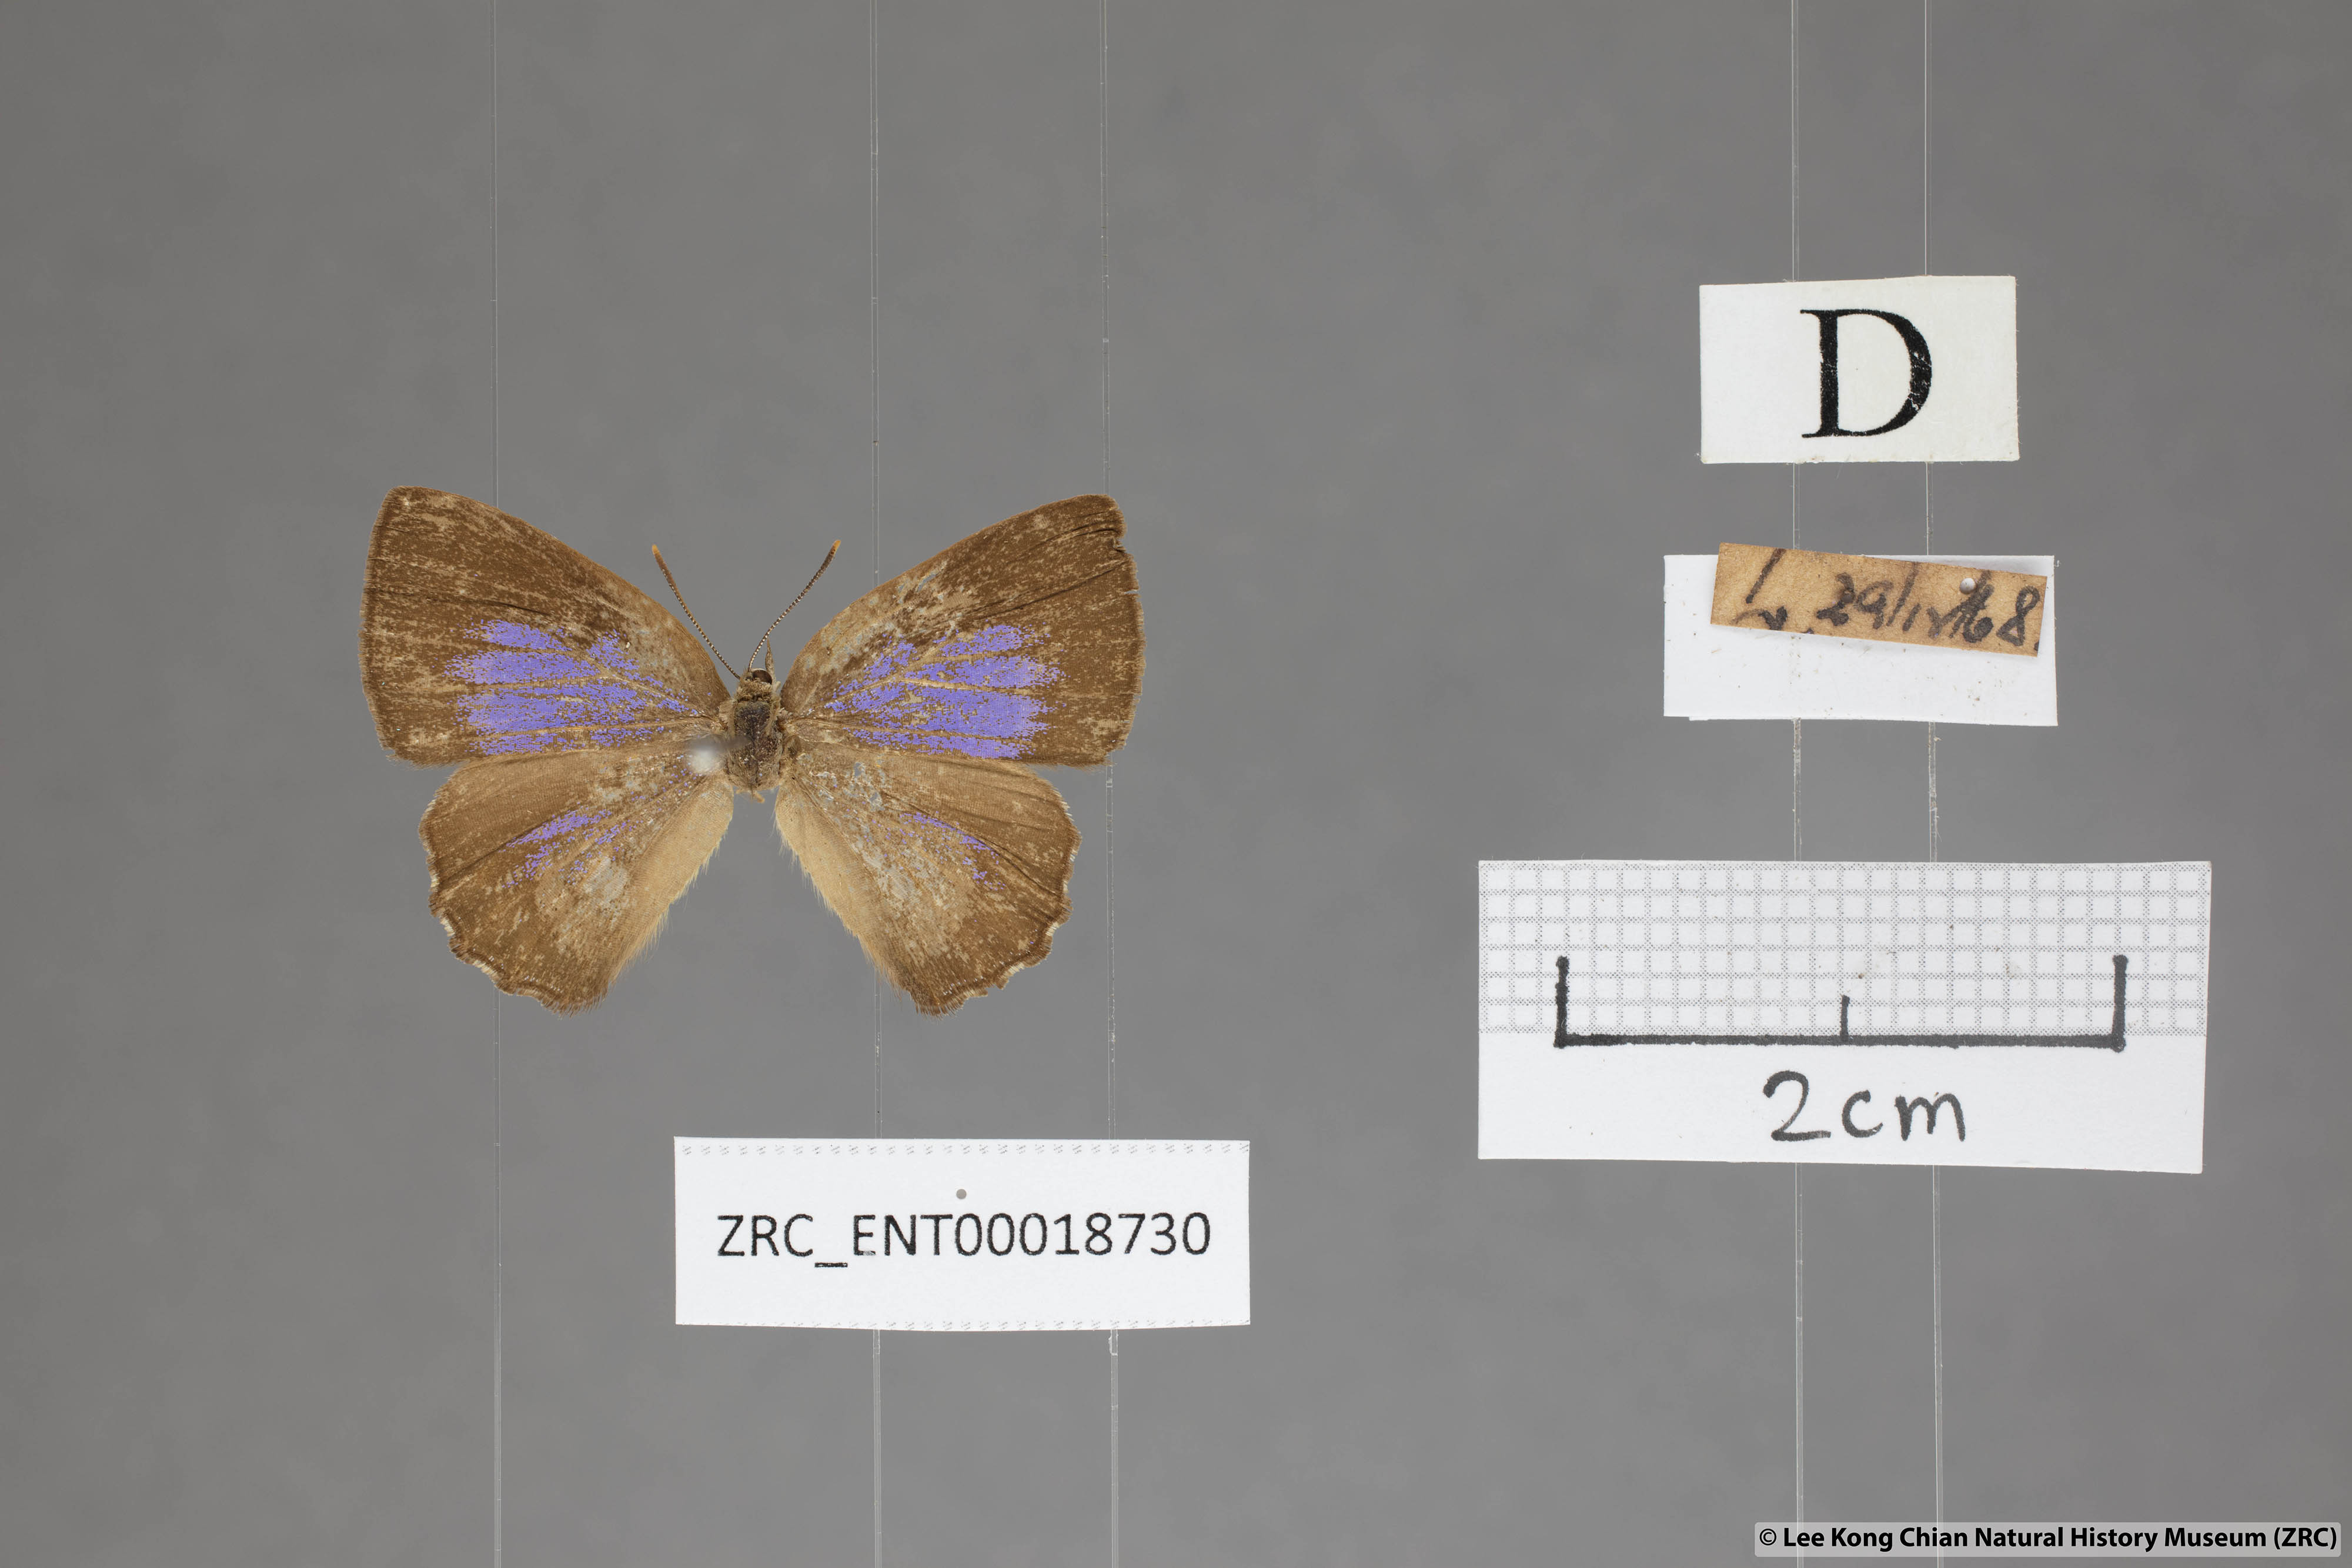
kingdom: Animalia
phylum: Arthropoda
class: Insecta
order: Lepidoptera
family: Lycaenidae
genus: Deramas
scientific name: Deramas livena
